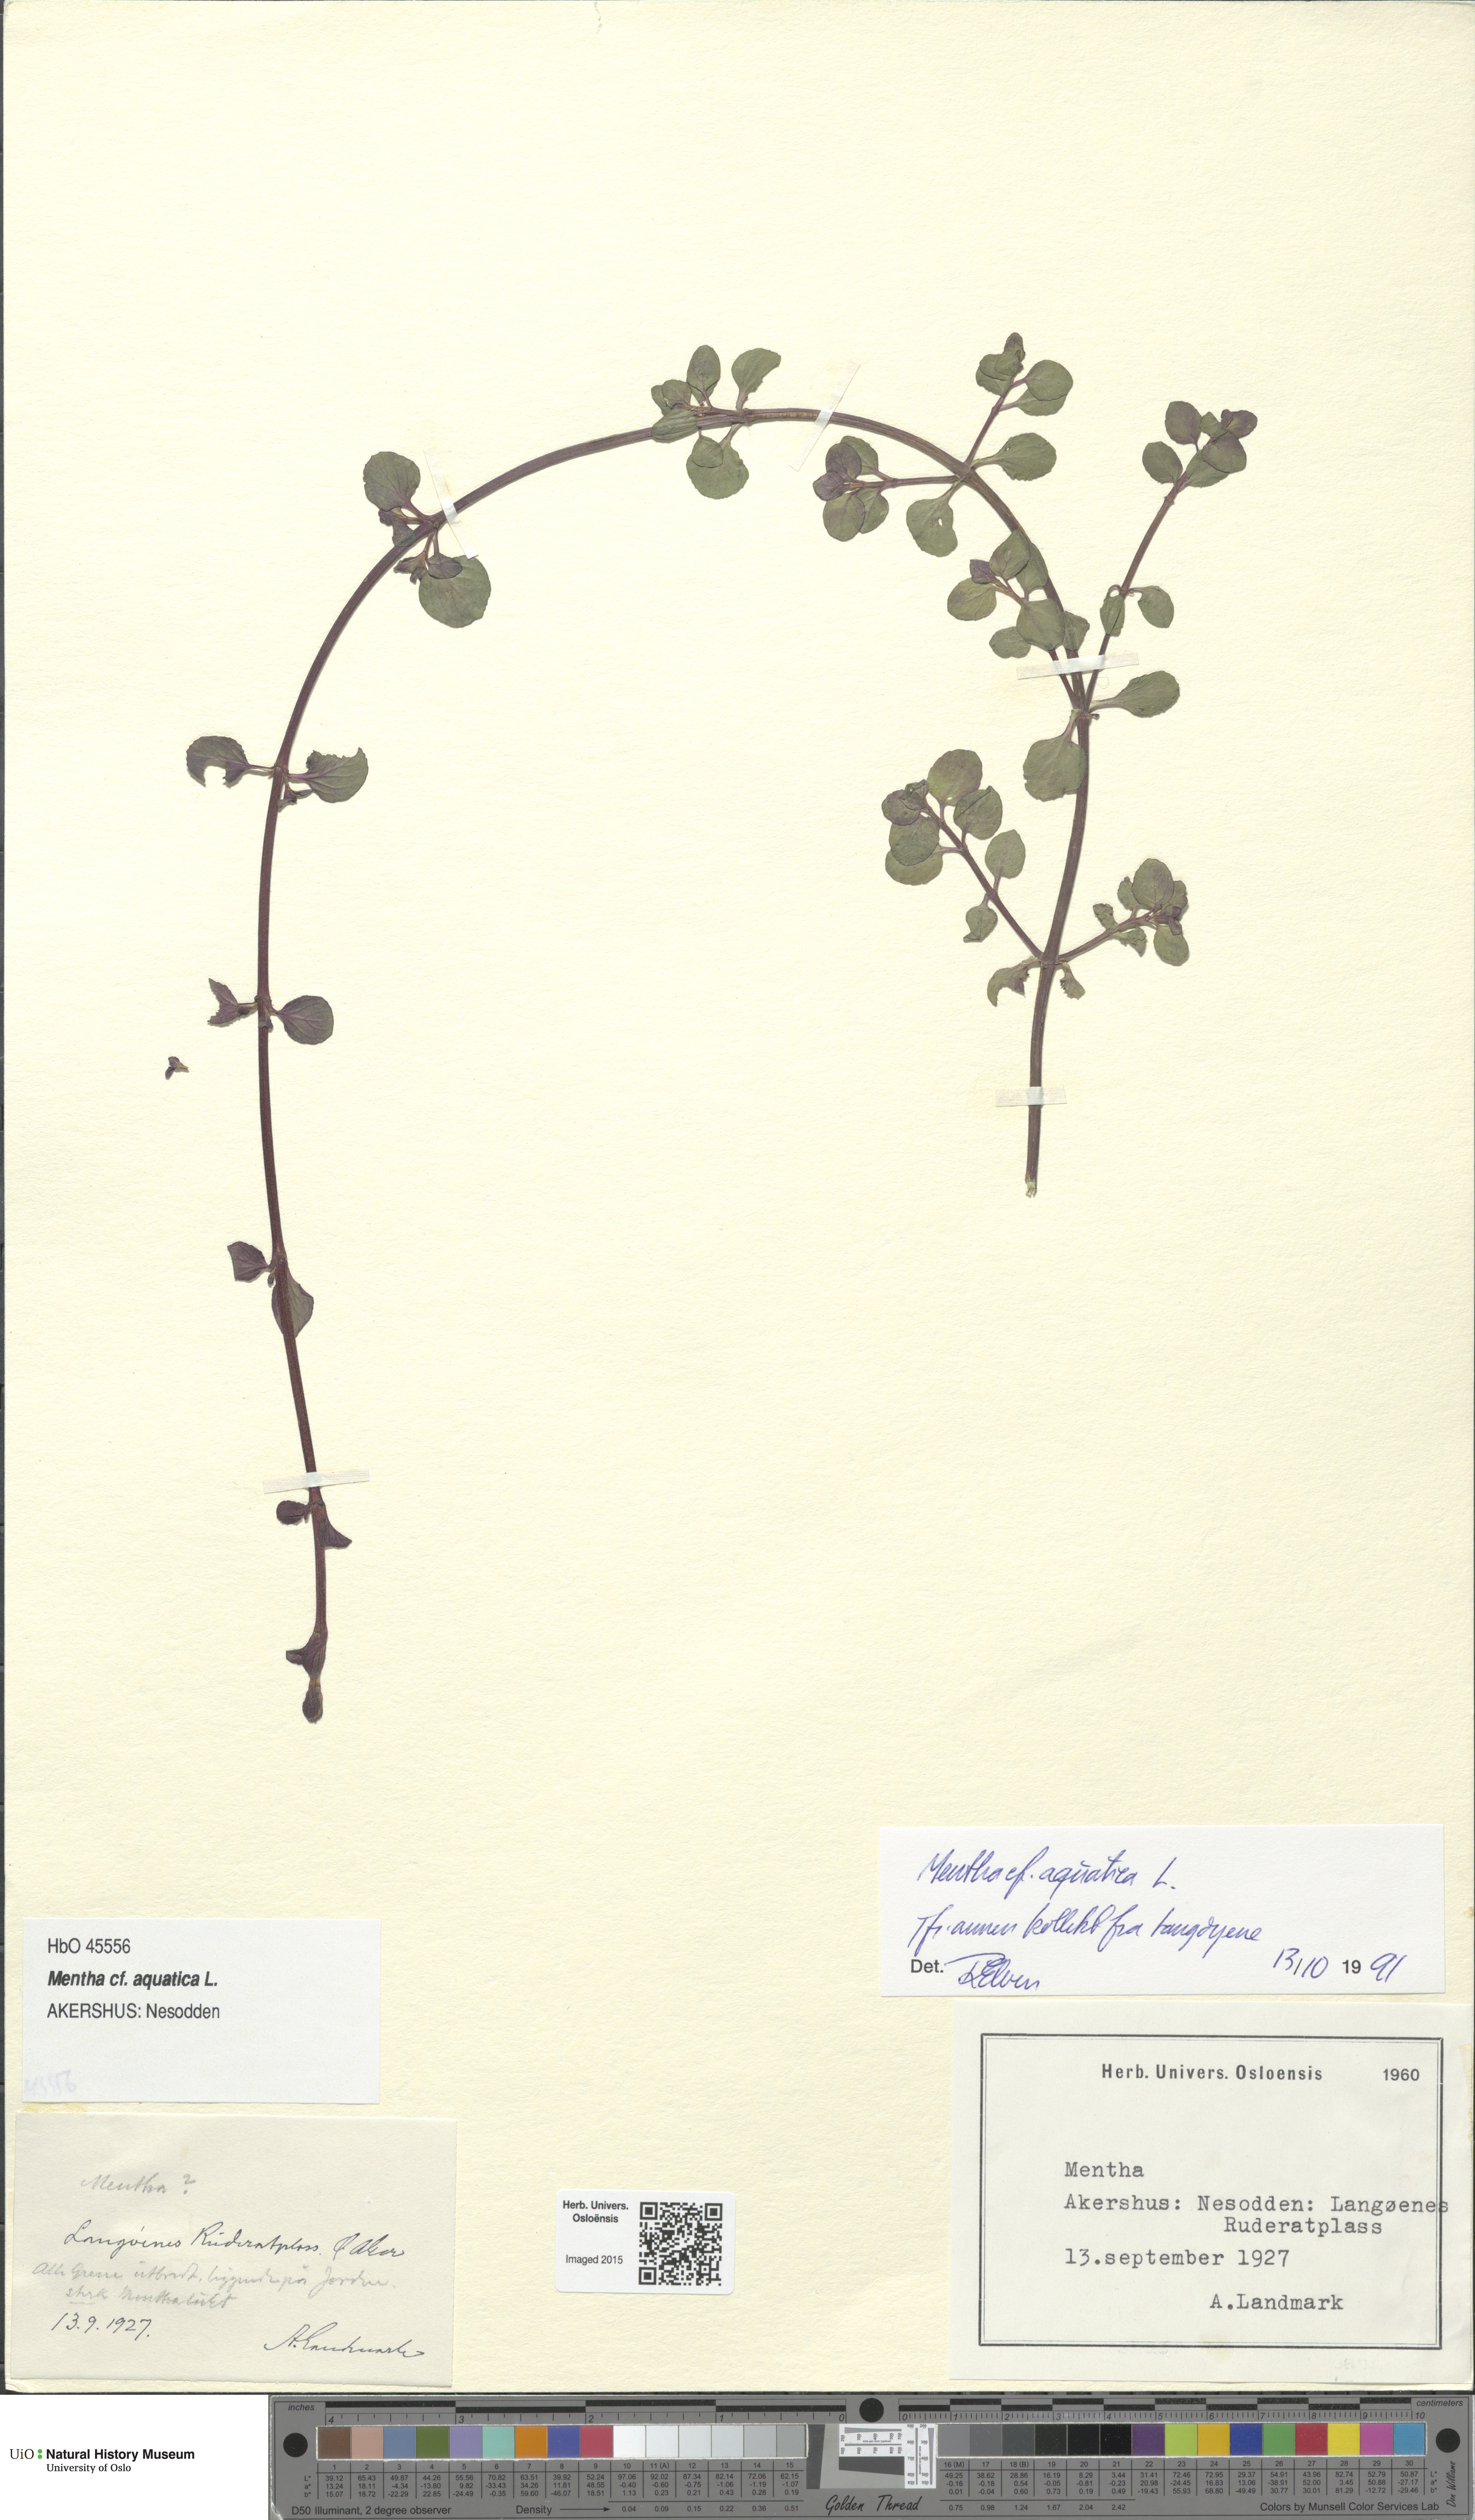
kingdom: Plantae
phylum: Tracheophyta
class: Magnoliopsida
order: Lamiales
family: Lamiaceae
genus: Mentha
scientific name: Mentha aquatica
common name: Water mint
